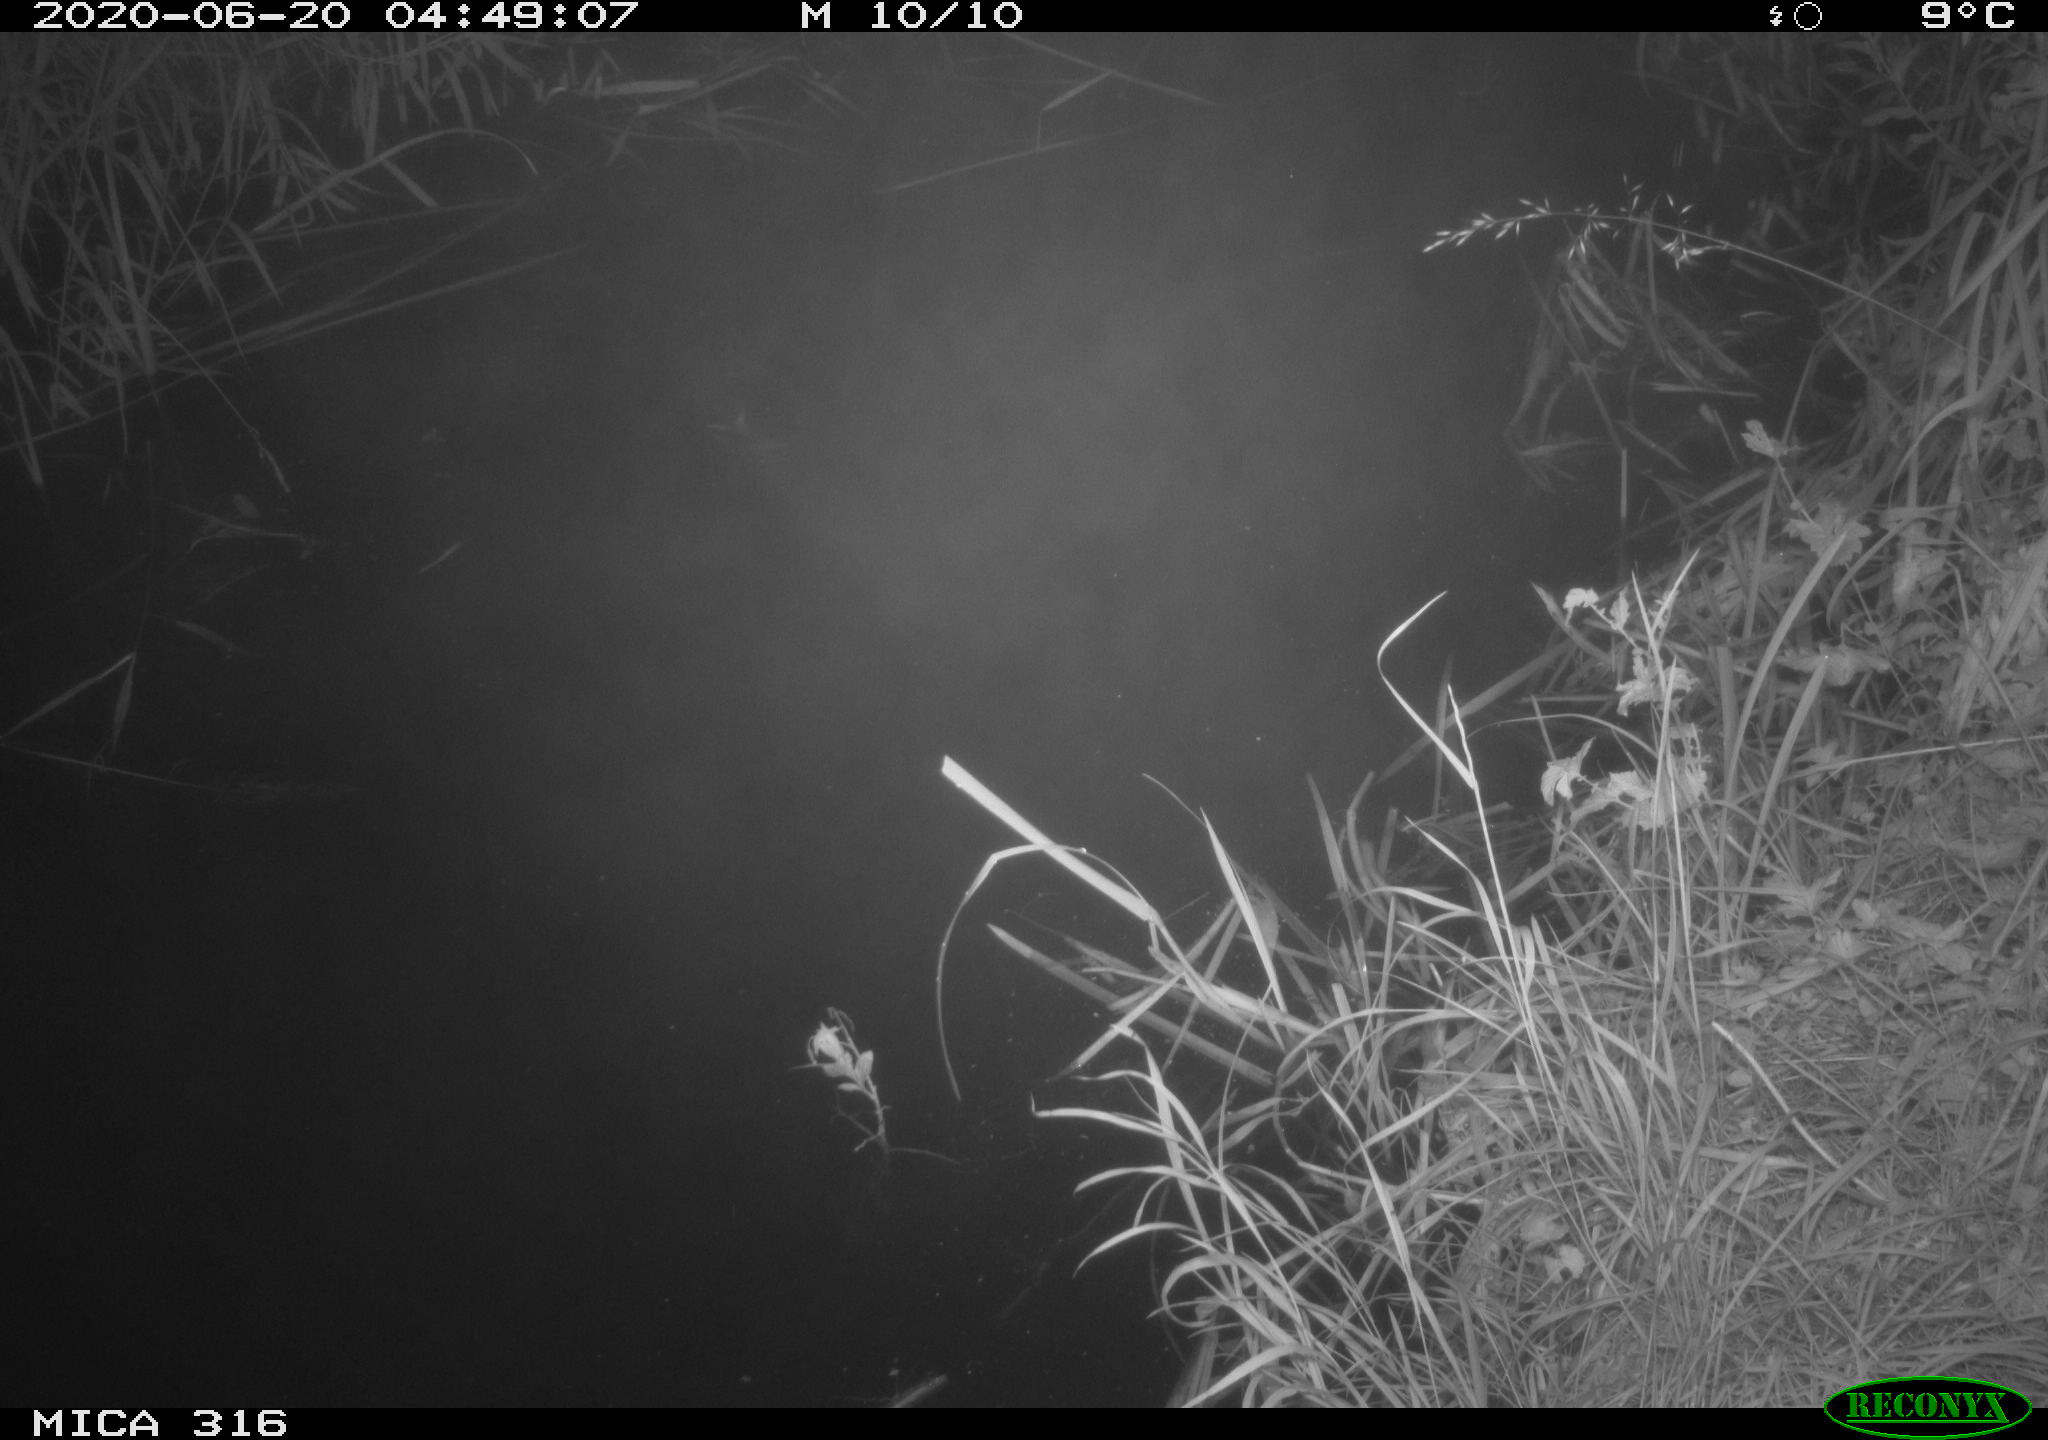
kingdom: Animalia
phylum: Chordata
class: Aves
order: Anseriformes
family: Anatidae
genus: Anas
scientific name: Anas platyrhynchos
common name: Mallard
